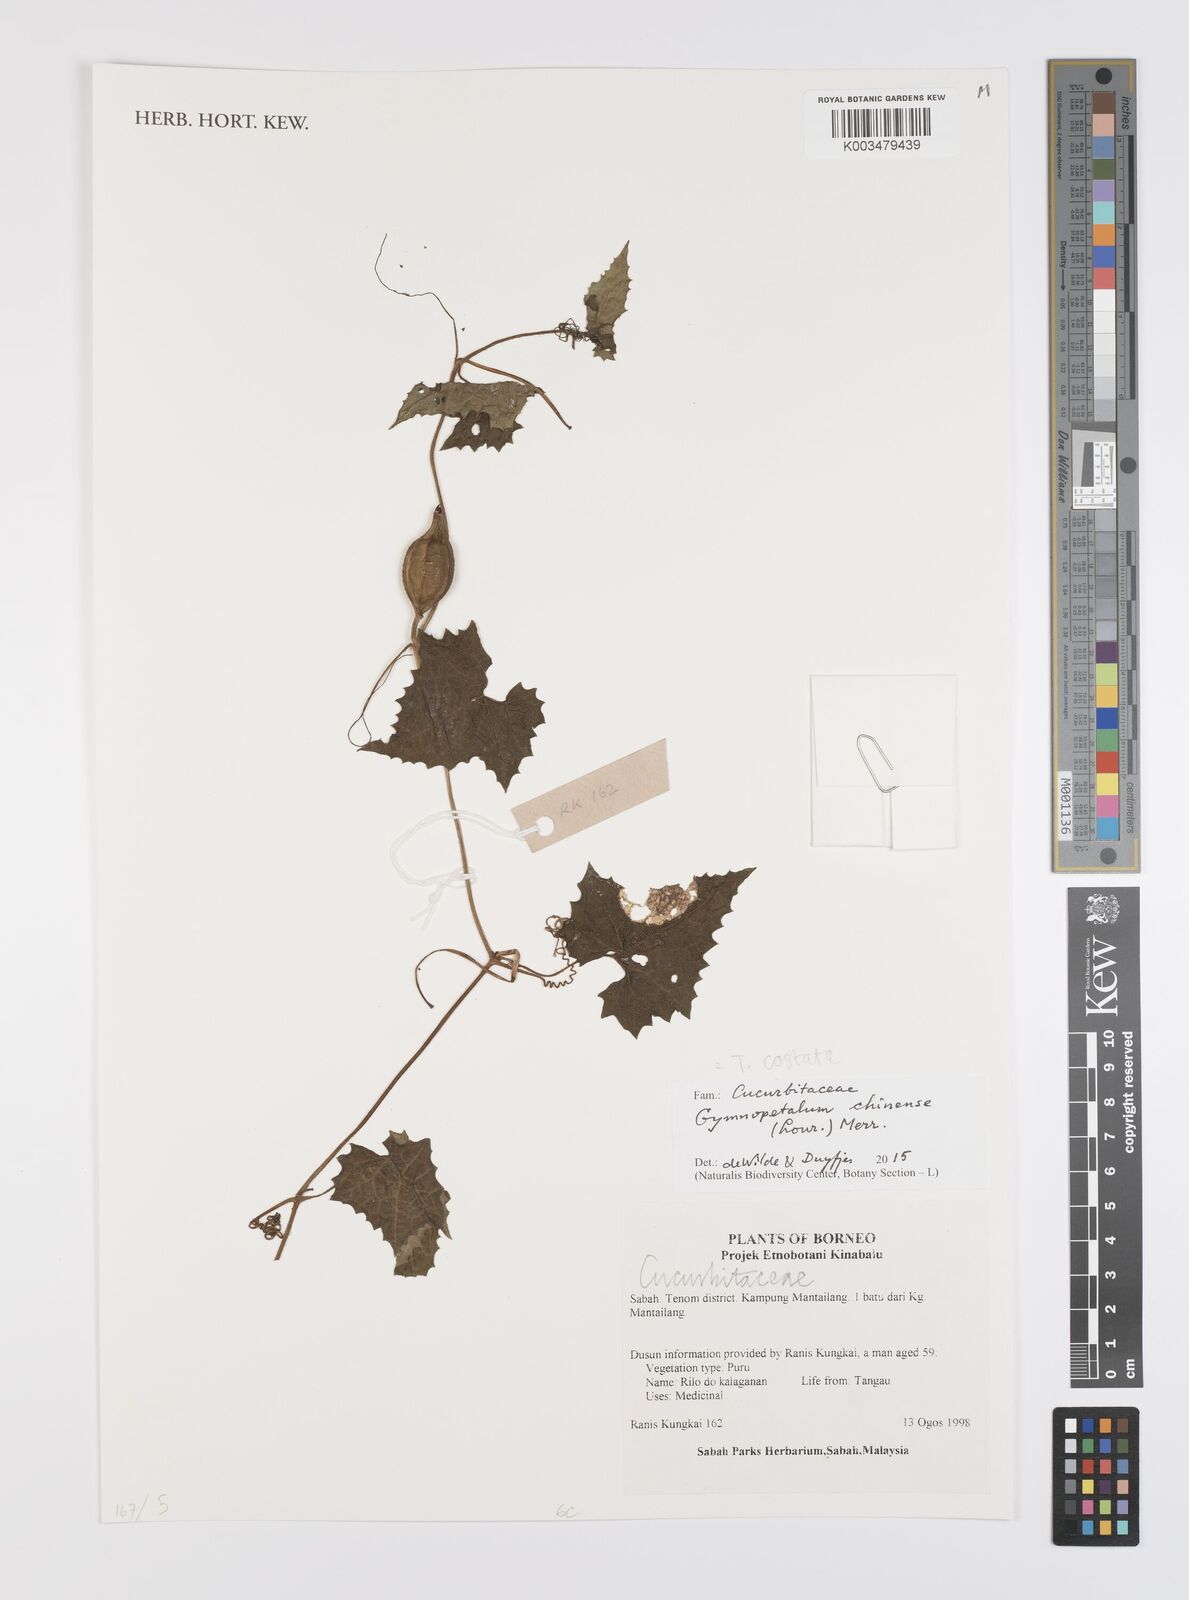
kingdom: Plantae
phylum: Tracheophyta
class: Magnoliopsida
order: Cucurbitales
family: Cucurbitaceae
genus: Trichosanthes
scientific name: Trichosanthes costata
